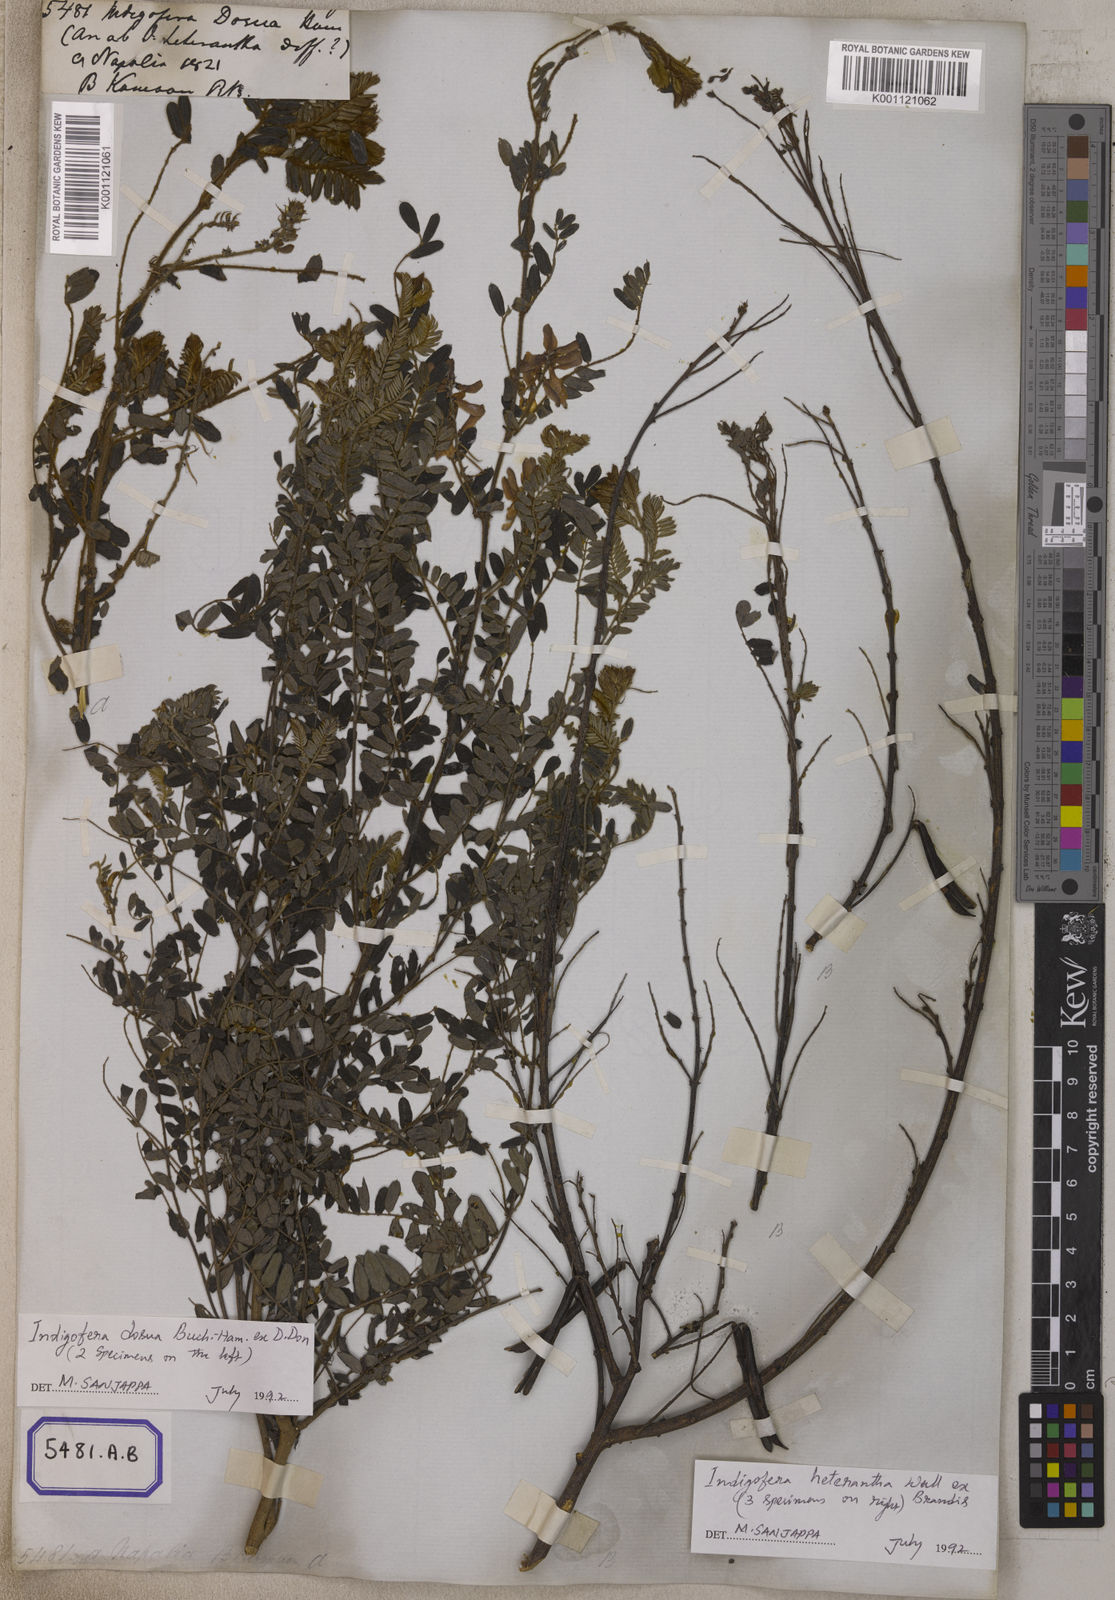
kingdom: Plantae
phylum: Tracheophyta
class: Magnoliopsida
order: Fabales
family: Fabaceae
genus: Indigofera
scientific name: Indigofera
